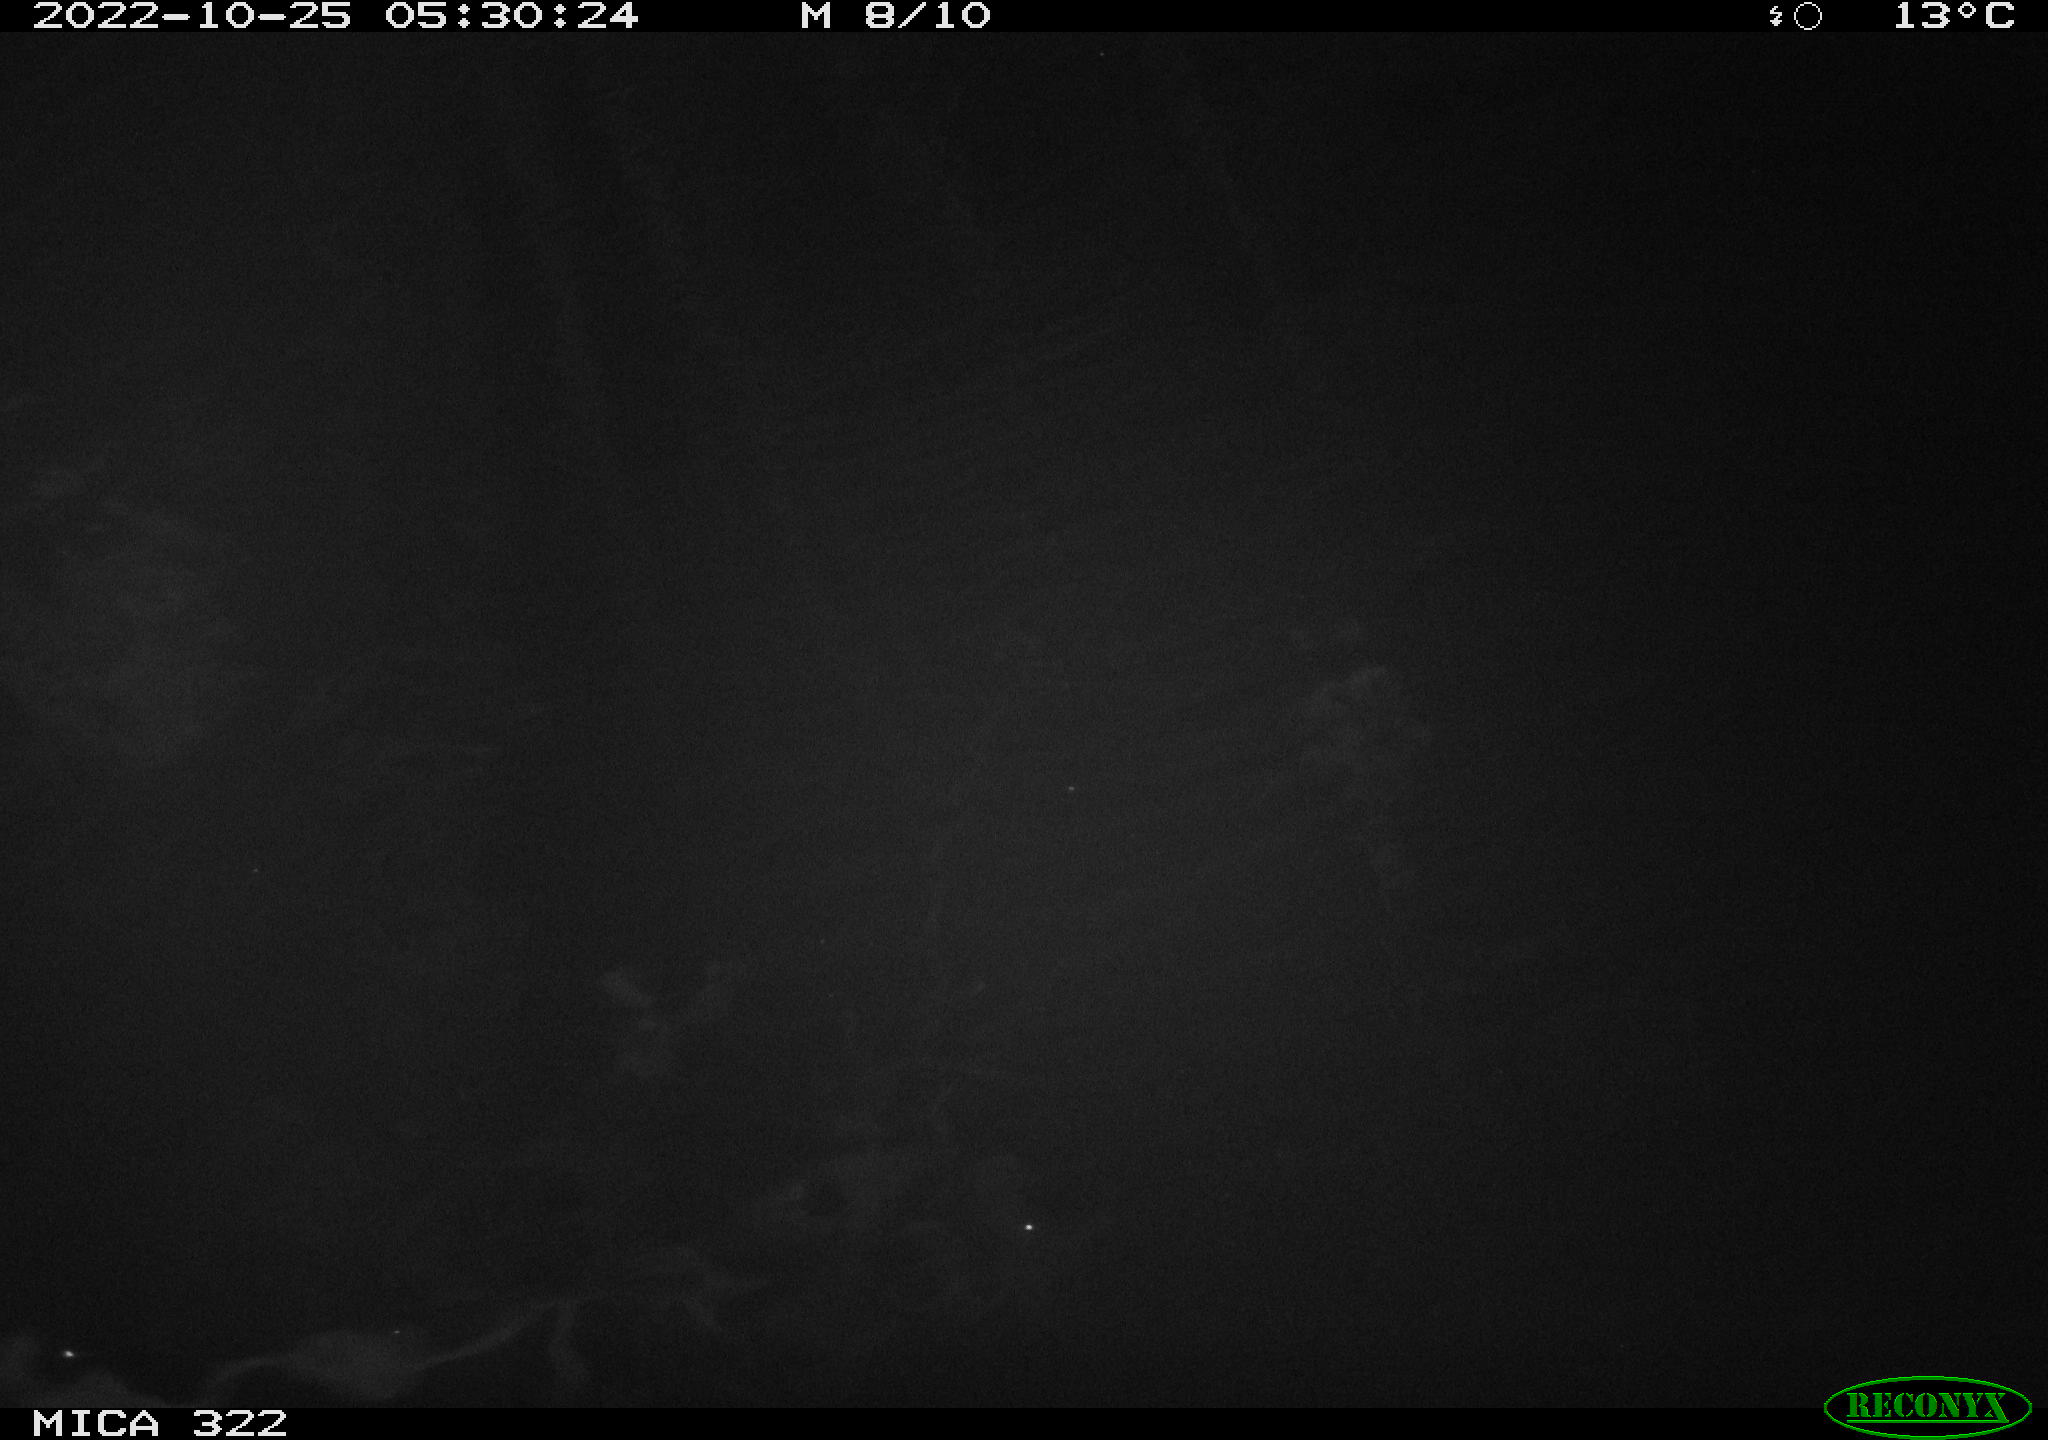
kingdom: Animalia
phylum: Chordata
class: Mammalia
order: Rodentia
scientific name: Rodentia
